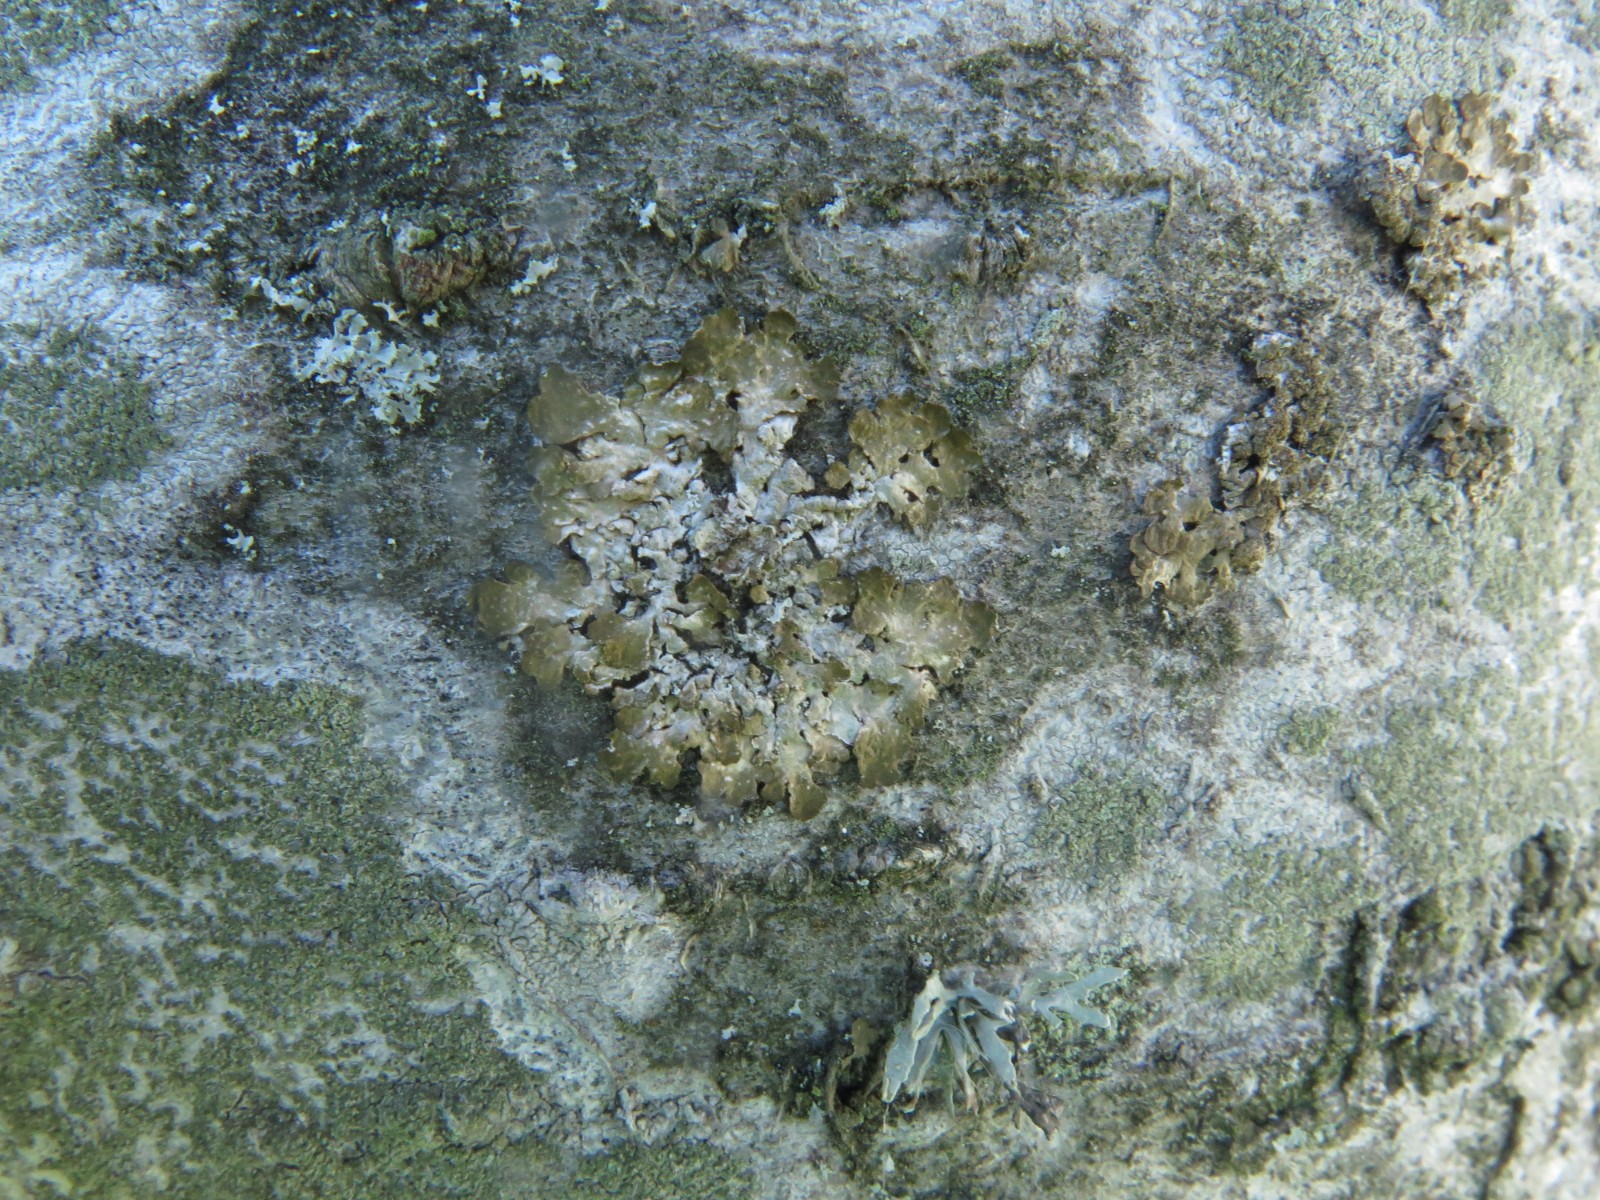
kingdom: Fungi
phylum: Ascomycota
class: Lecanoromycetes
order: Lecanorales
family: Parmeliaceae
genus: Melanelixia
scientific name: Melanelixia
